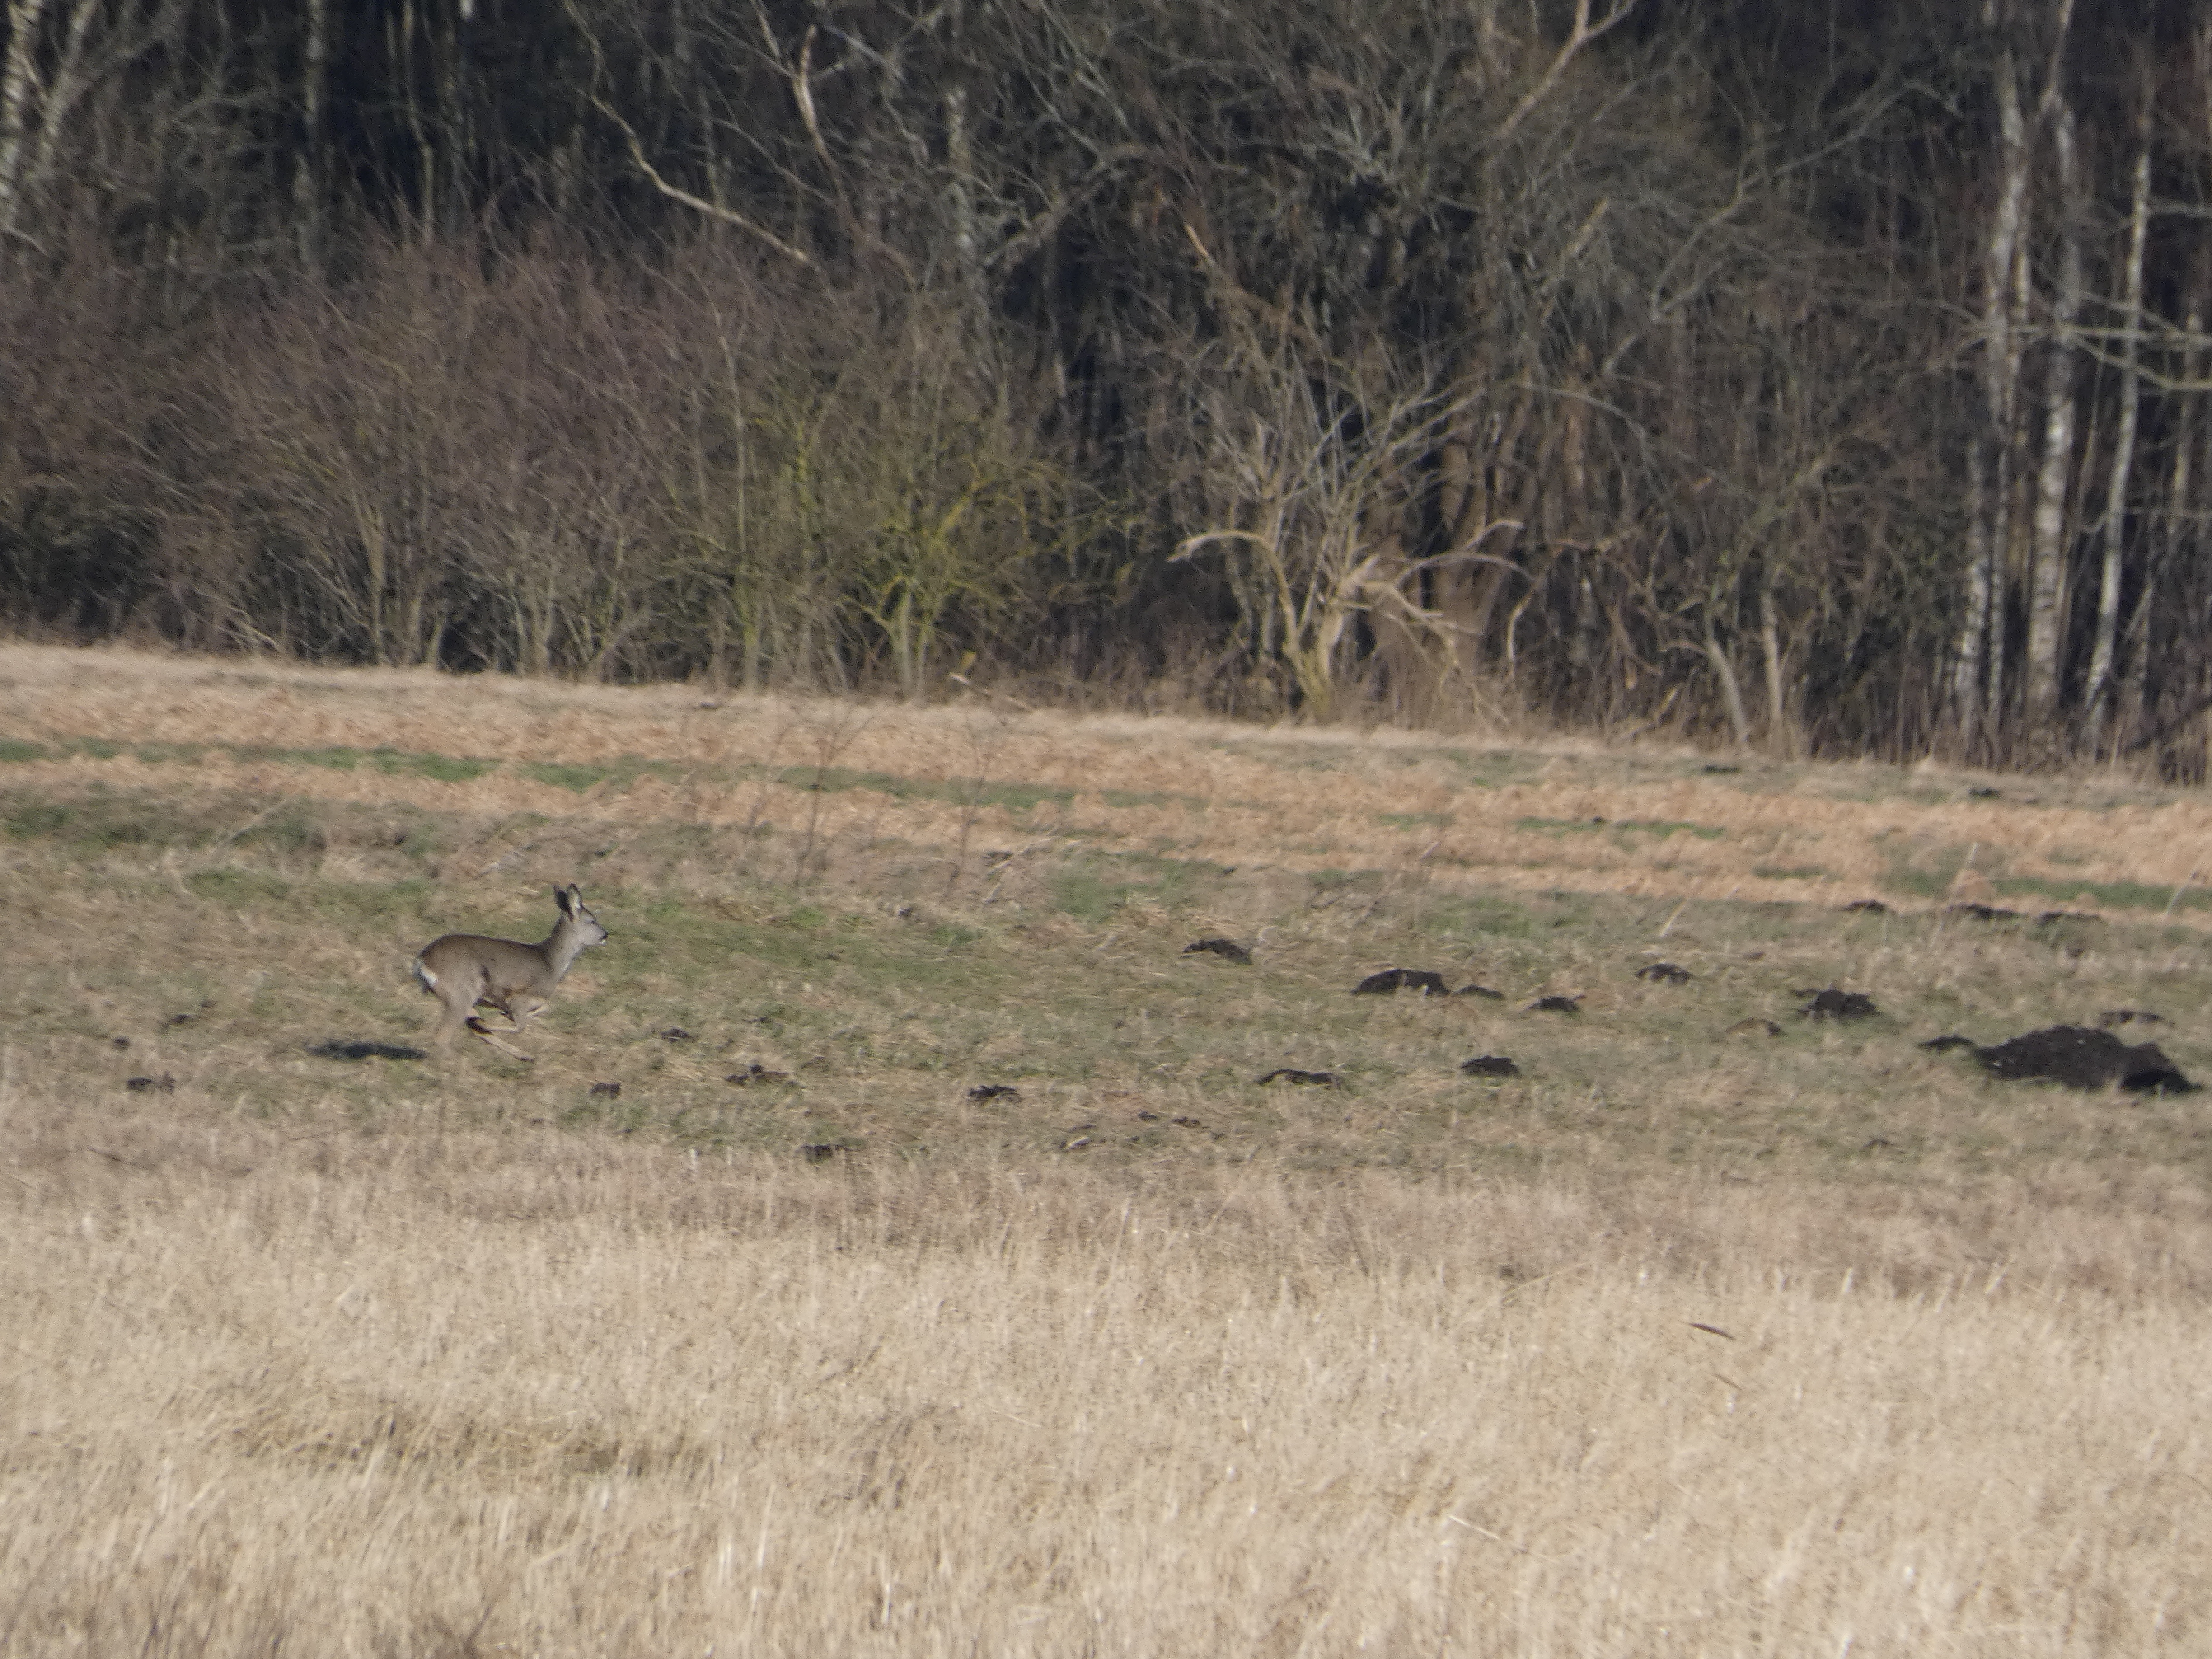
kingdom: Animalia
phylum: Chordata
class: Mammalia
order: Artiodactyla
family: Cervidae
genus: Capreolus
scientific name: Capreolus capreolus
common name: Rådyr
